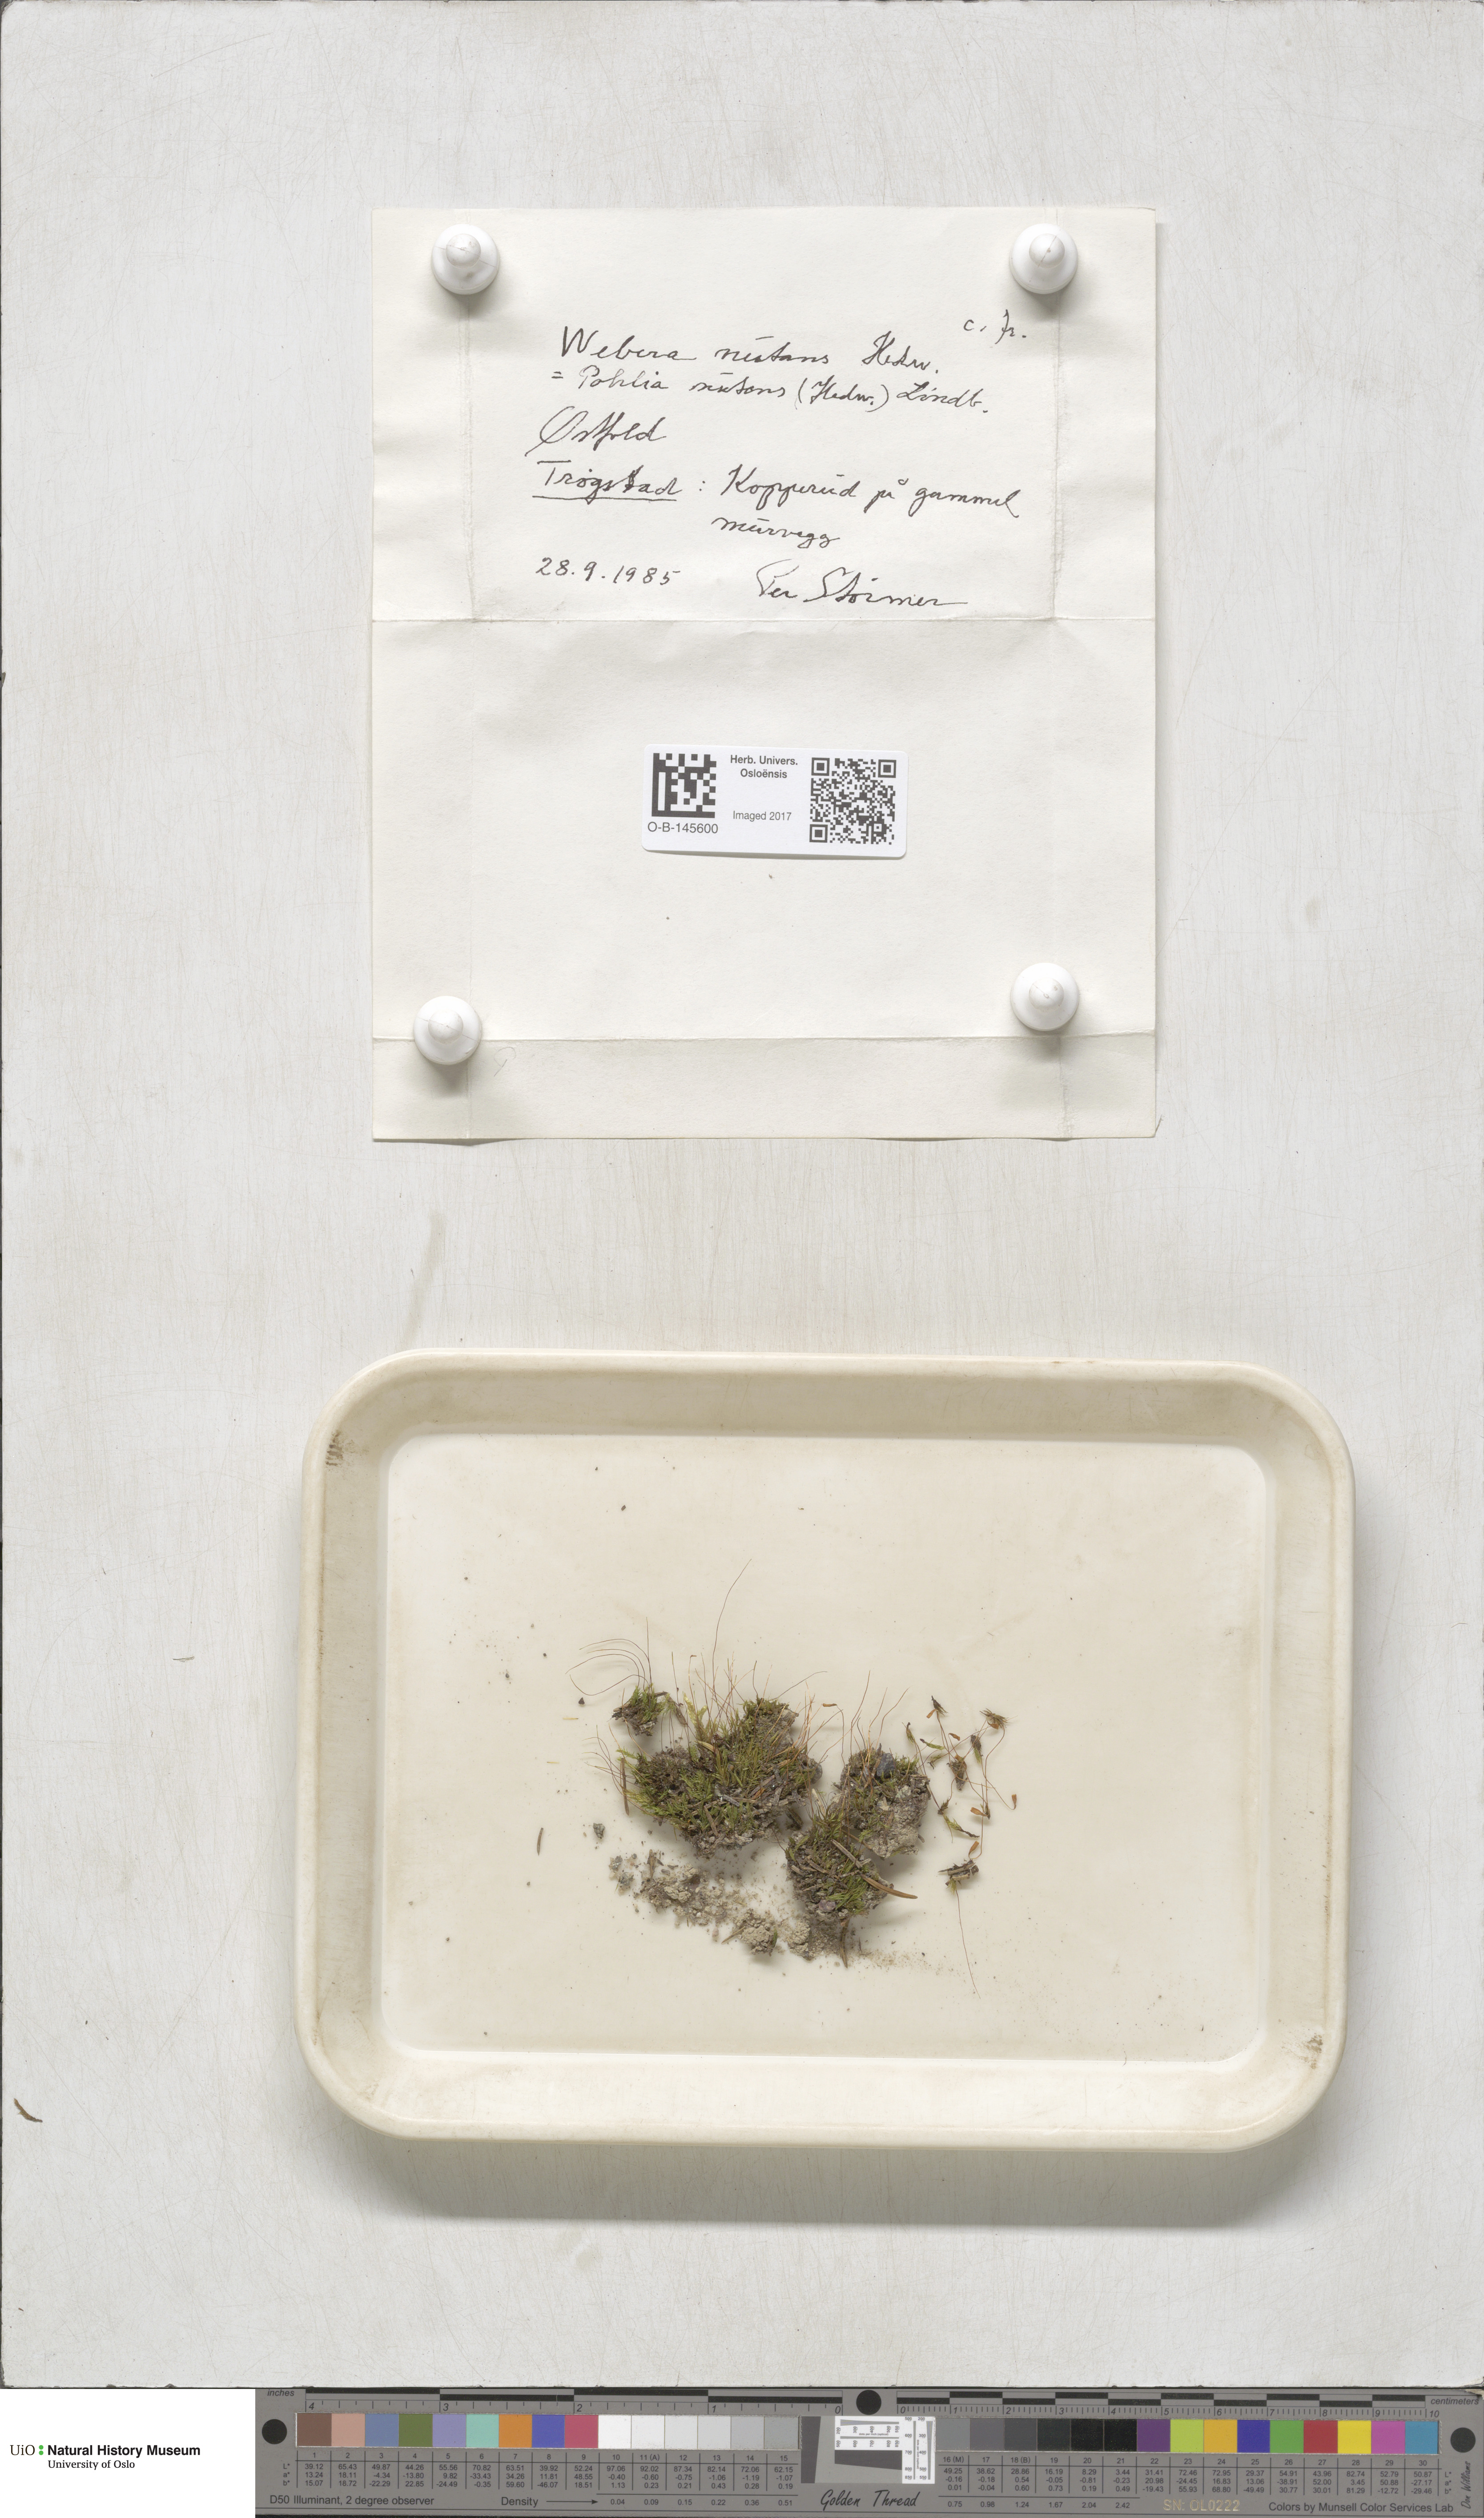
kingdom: Plantae
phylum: Bryophyta
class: Bryopsida
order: Bryales
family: Mniaceae
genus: Pohlia
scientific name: Pohlia nutans
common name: Nodding thread-moss
